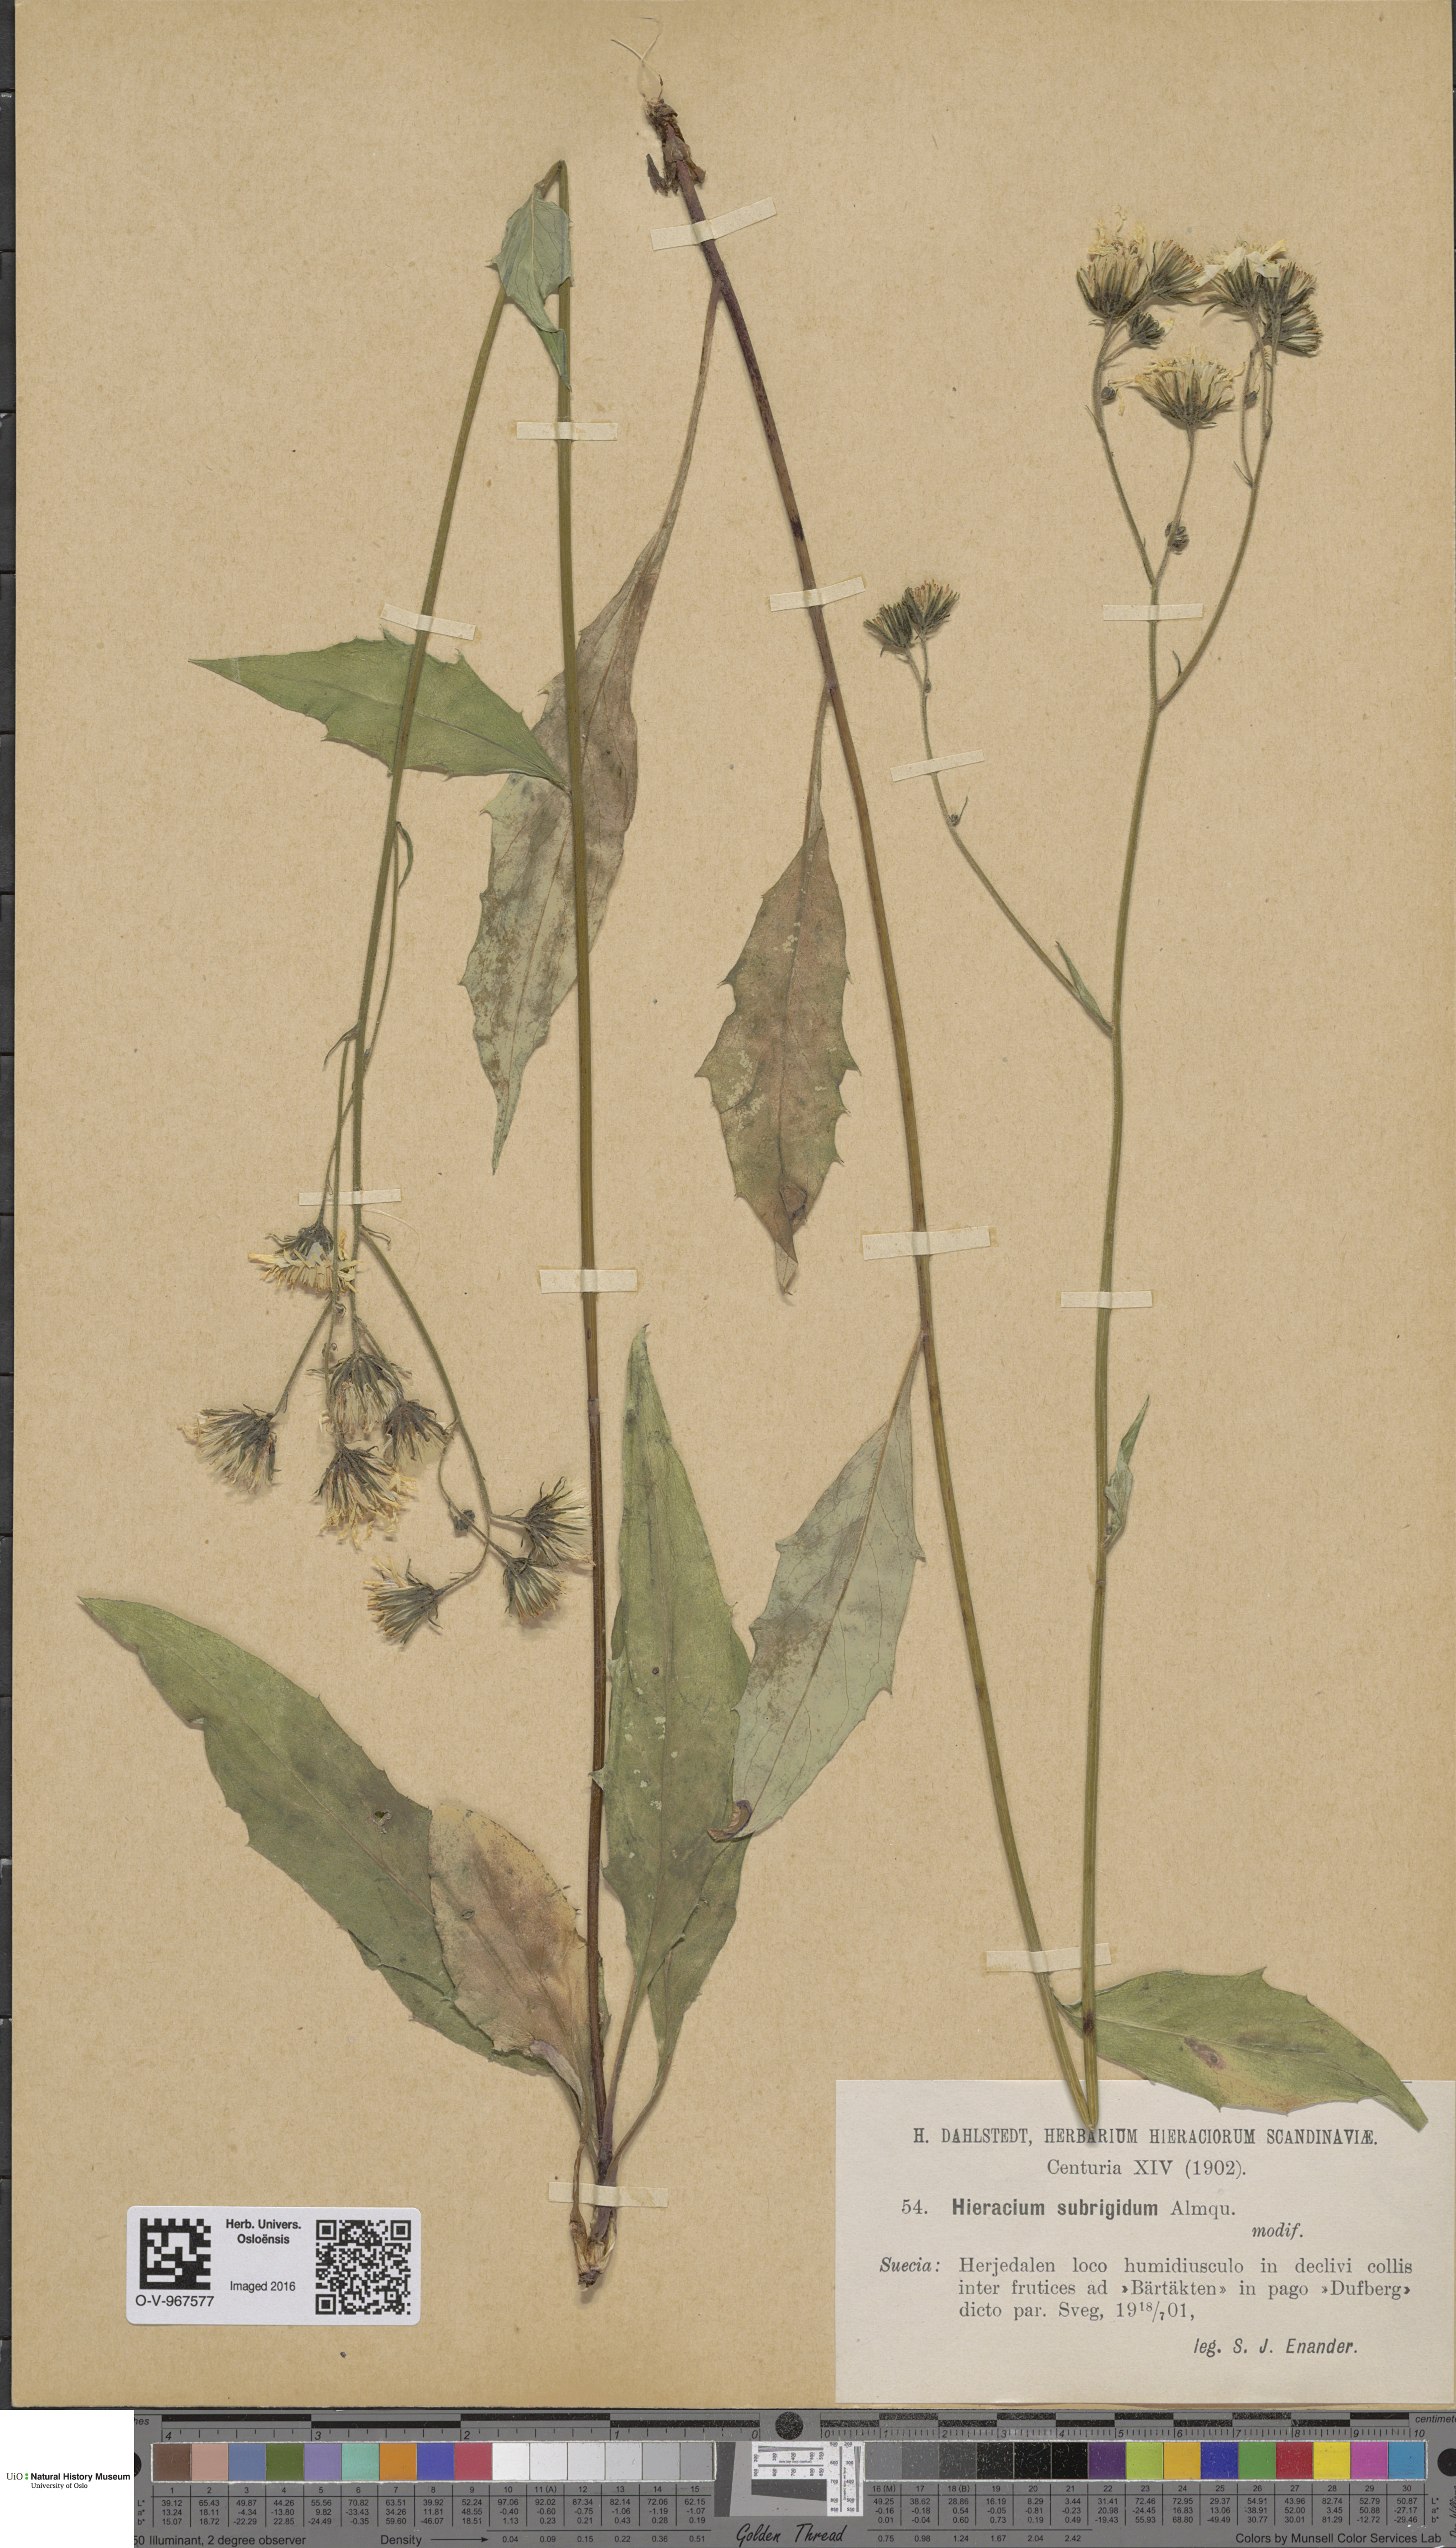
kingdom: Plantae
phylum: Tracheophyta
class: Magnoliopsida
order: Asterales
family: Asteraceae
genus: Hieracium
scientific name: Hieracium subrigidum
